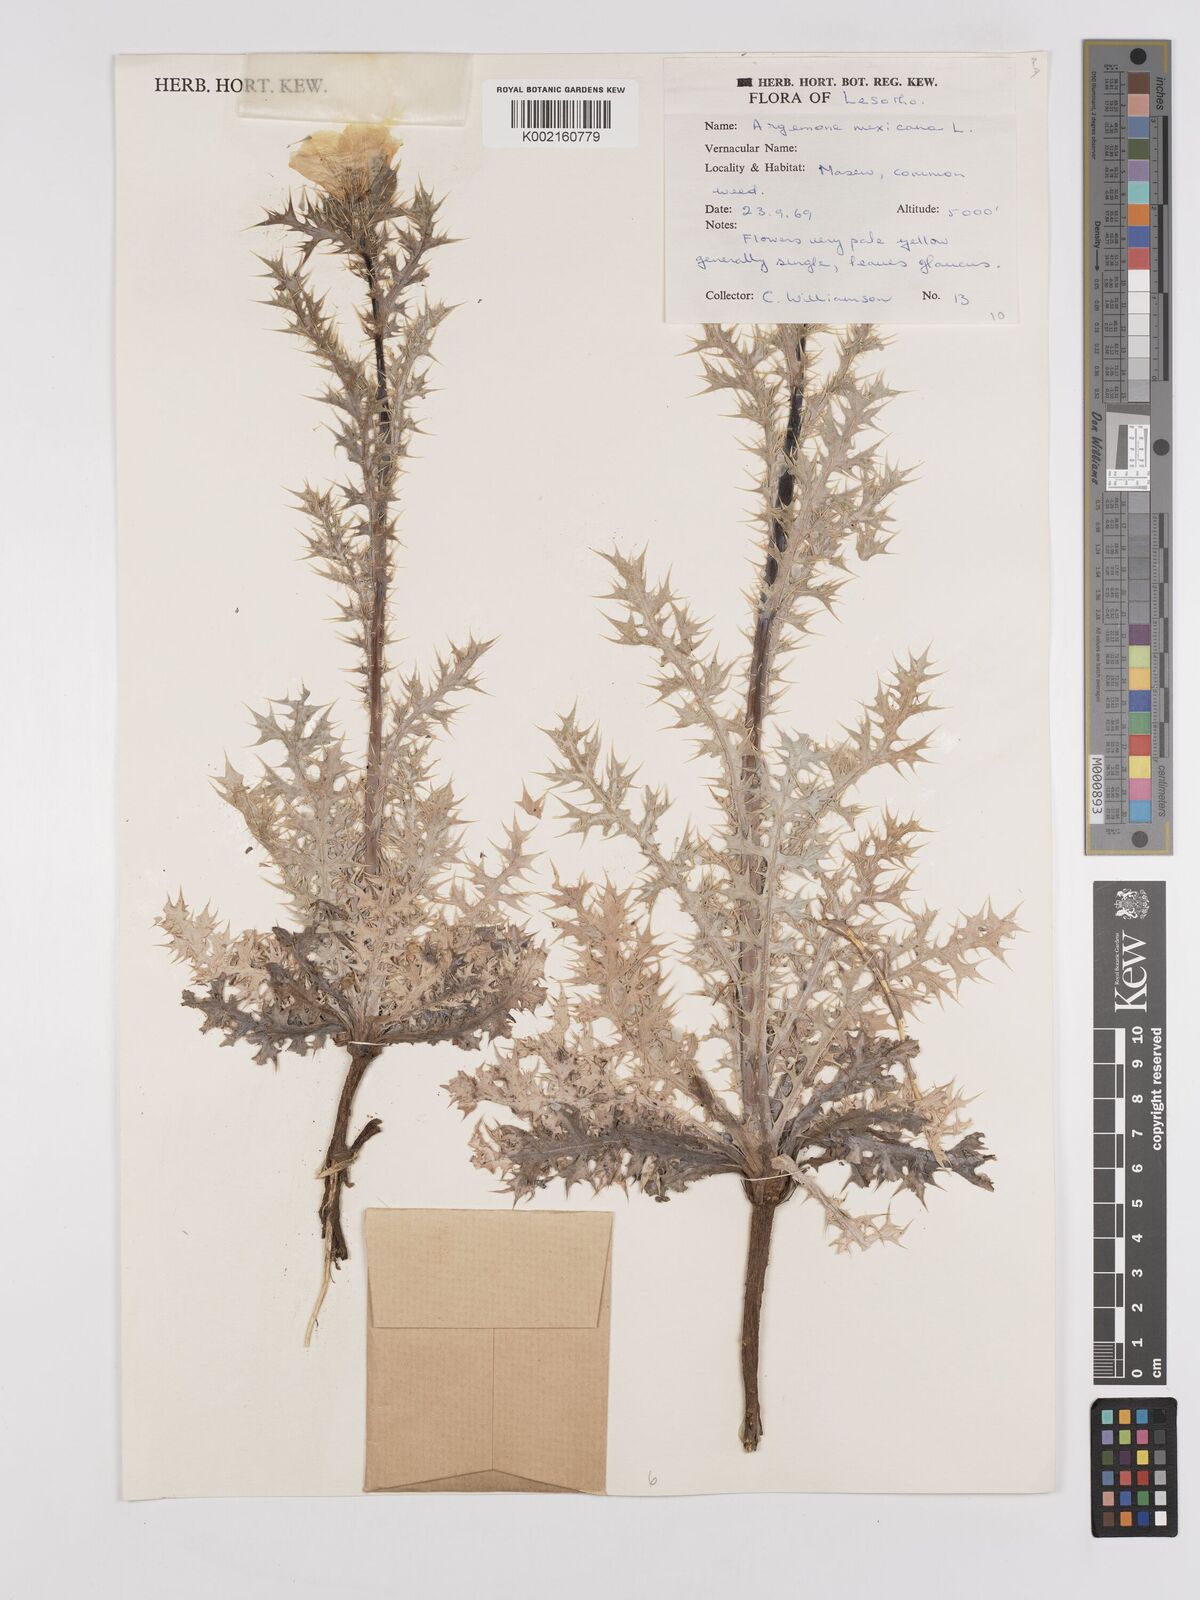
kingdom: Plantae
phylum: Tracheophyta
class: Magnoliopsida
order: Ranunculales
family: Papaveraceae
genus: Argemone
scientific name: Argemone mexicana
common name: Mexican poppy
